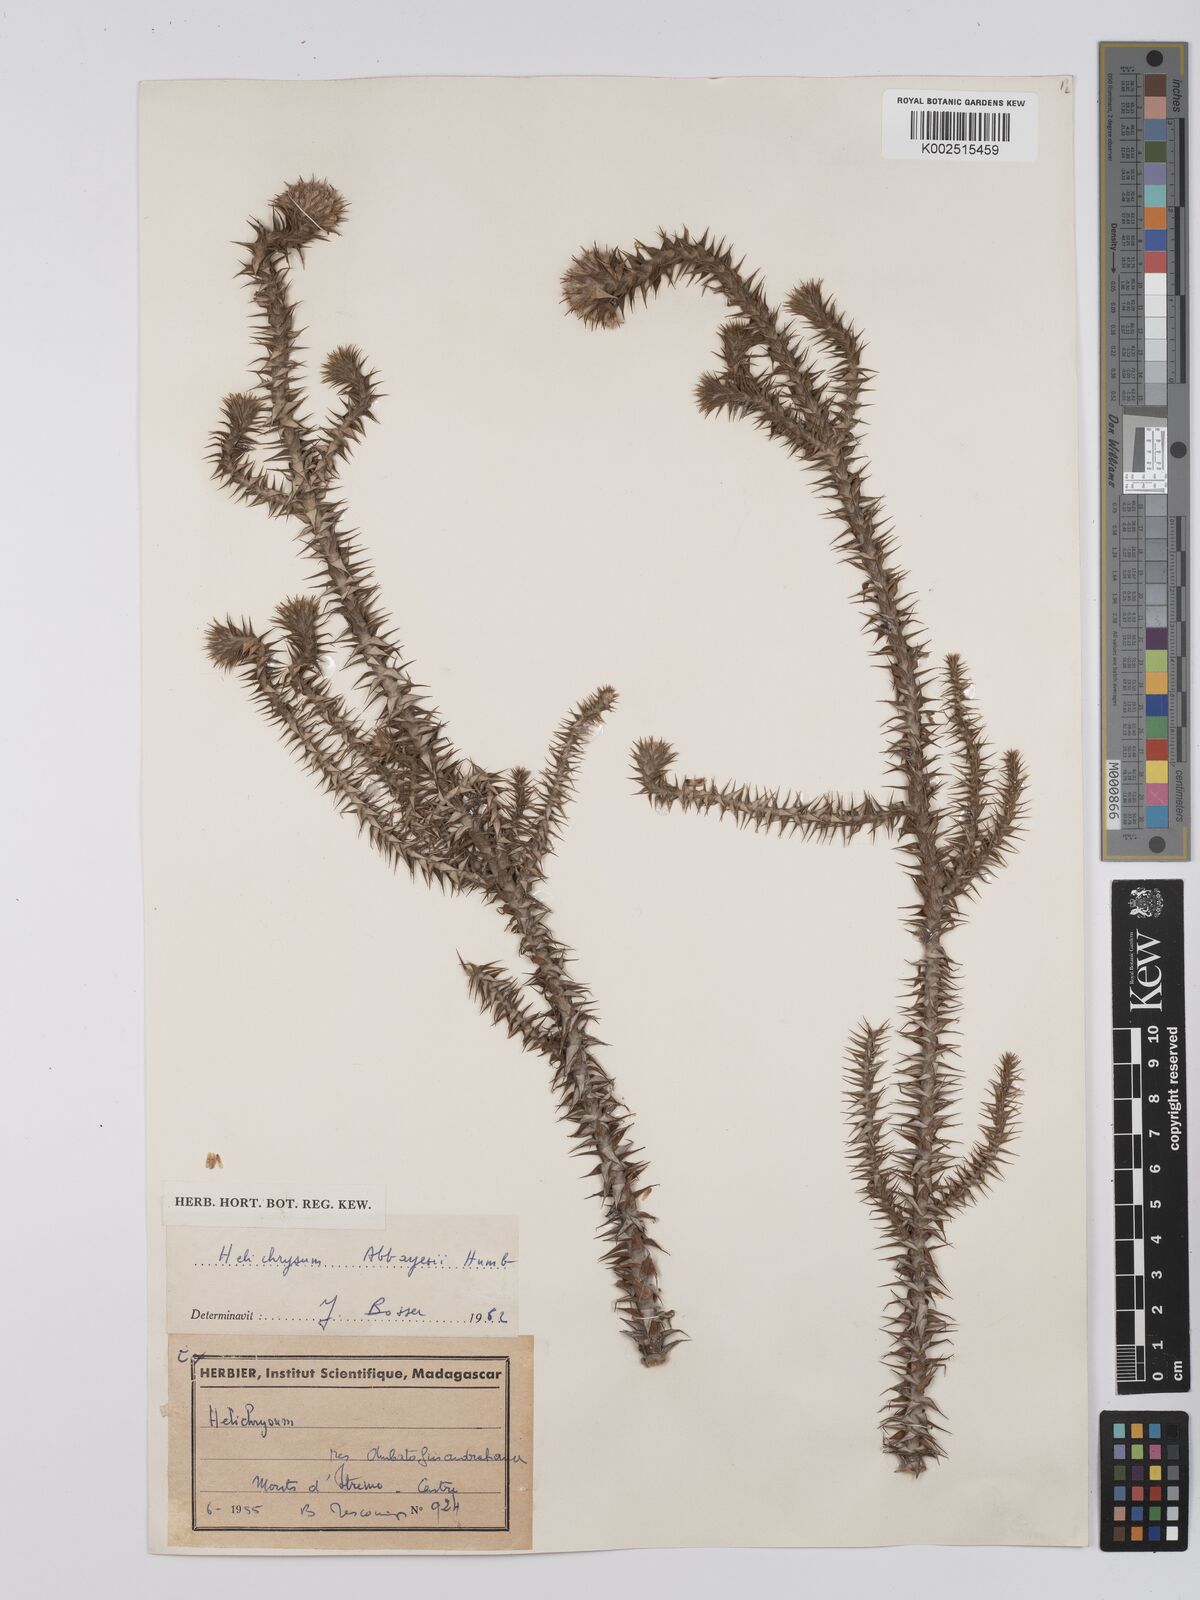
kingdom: Plantae
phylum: Tracheophyta
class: Magnoliopsida
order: Asterales
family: Asteraceae
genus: Helichrysum
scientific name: Helichrysum abbayesii
